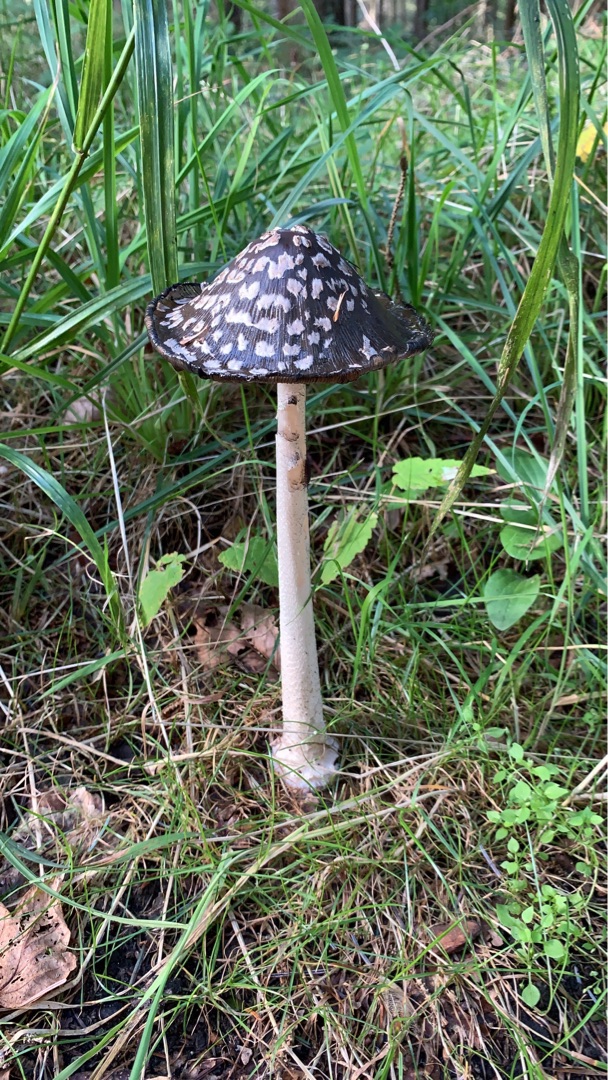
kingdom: Fungi
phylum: Basidiomycota
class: Agaricomycetes
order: Agaricales
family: Psathyrellaceae
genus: Coprinopsis
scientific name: Coprinopsis picacea
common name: Skade-blækhat
